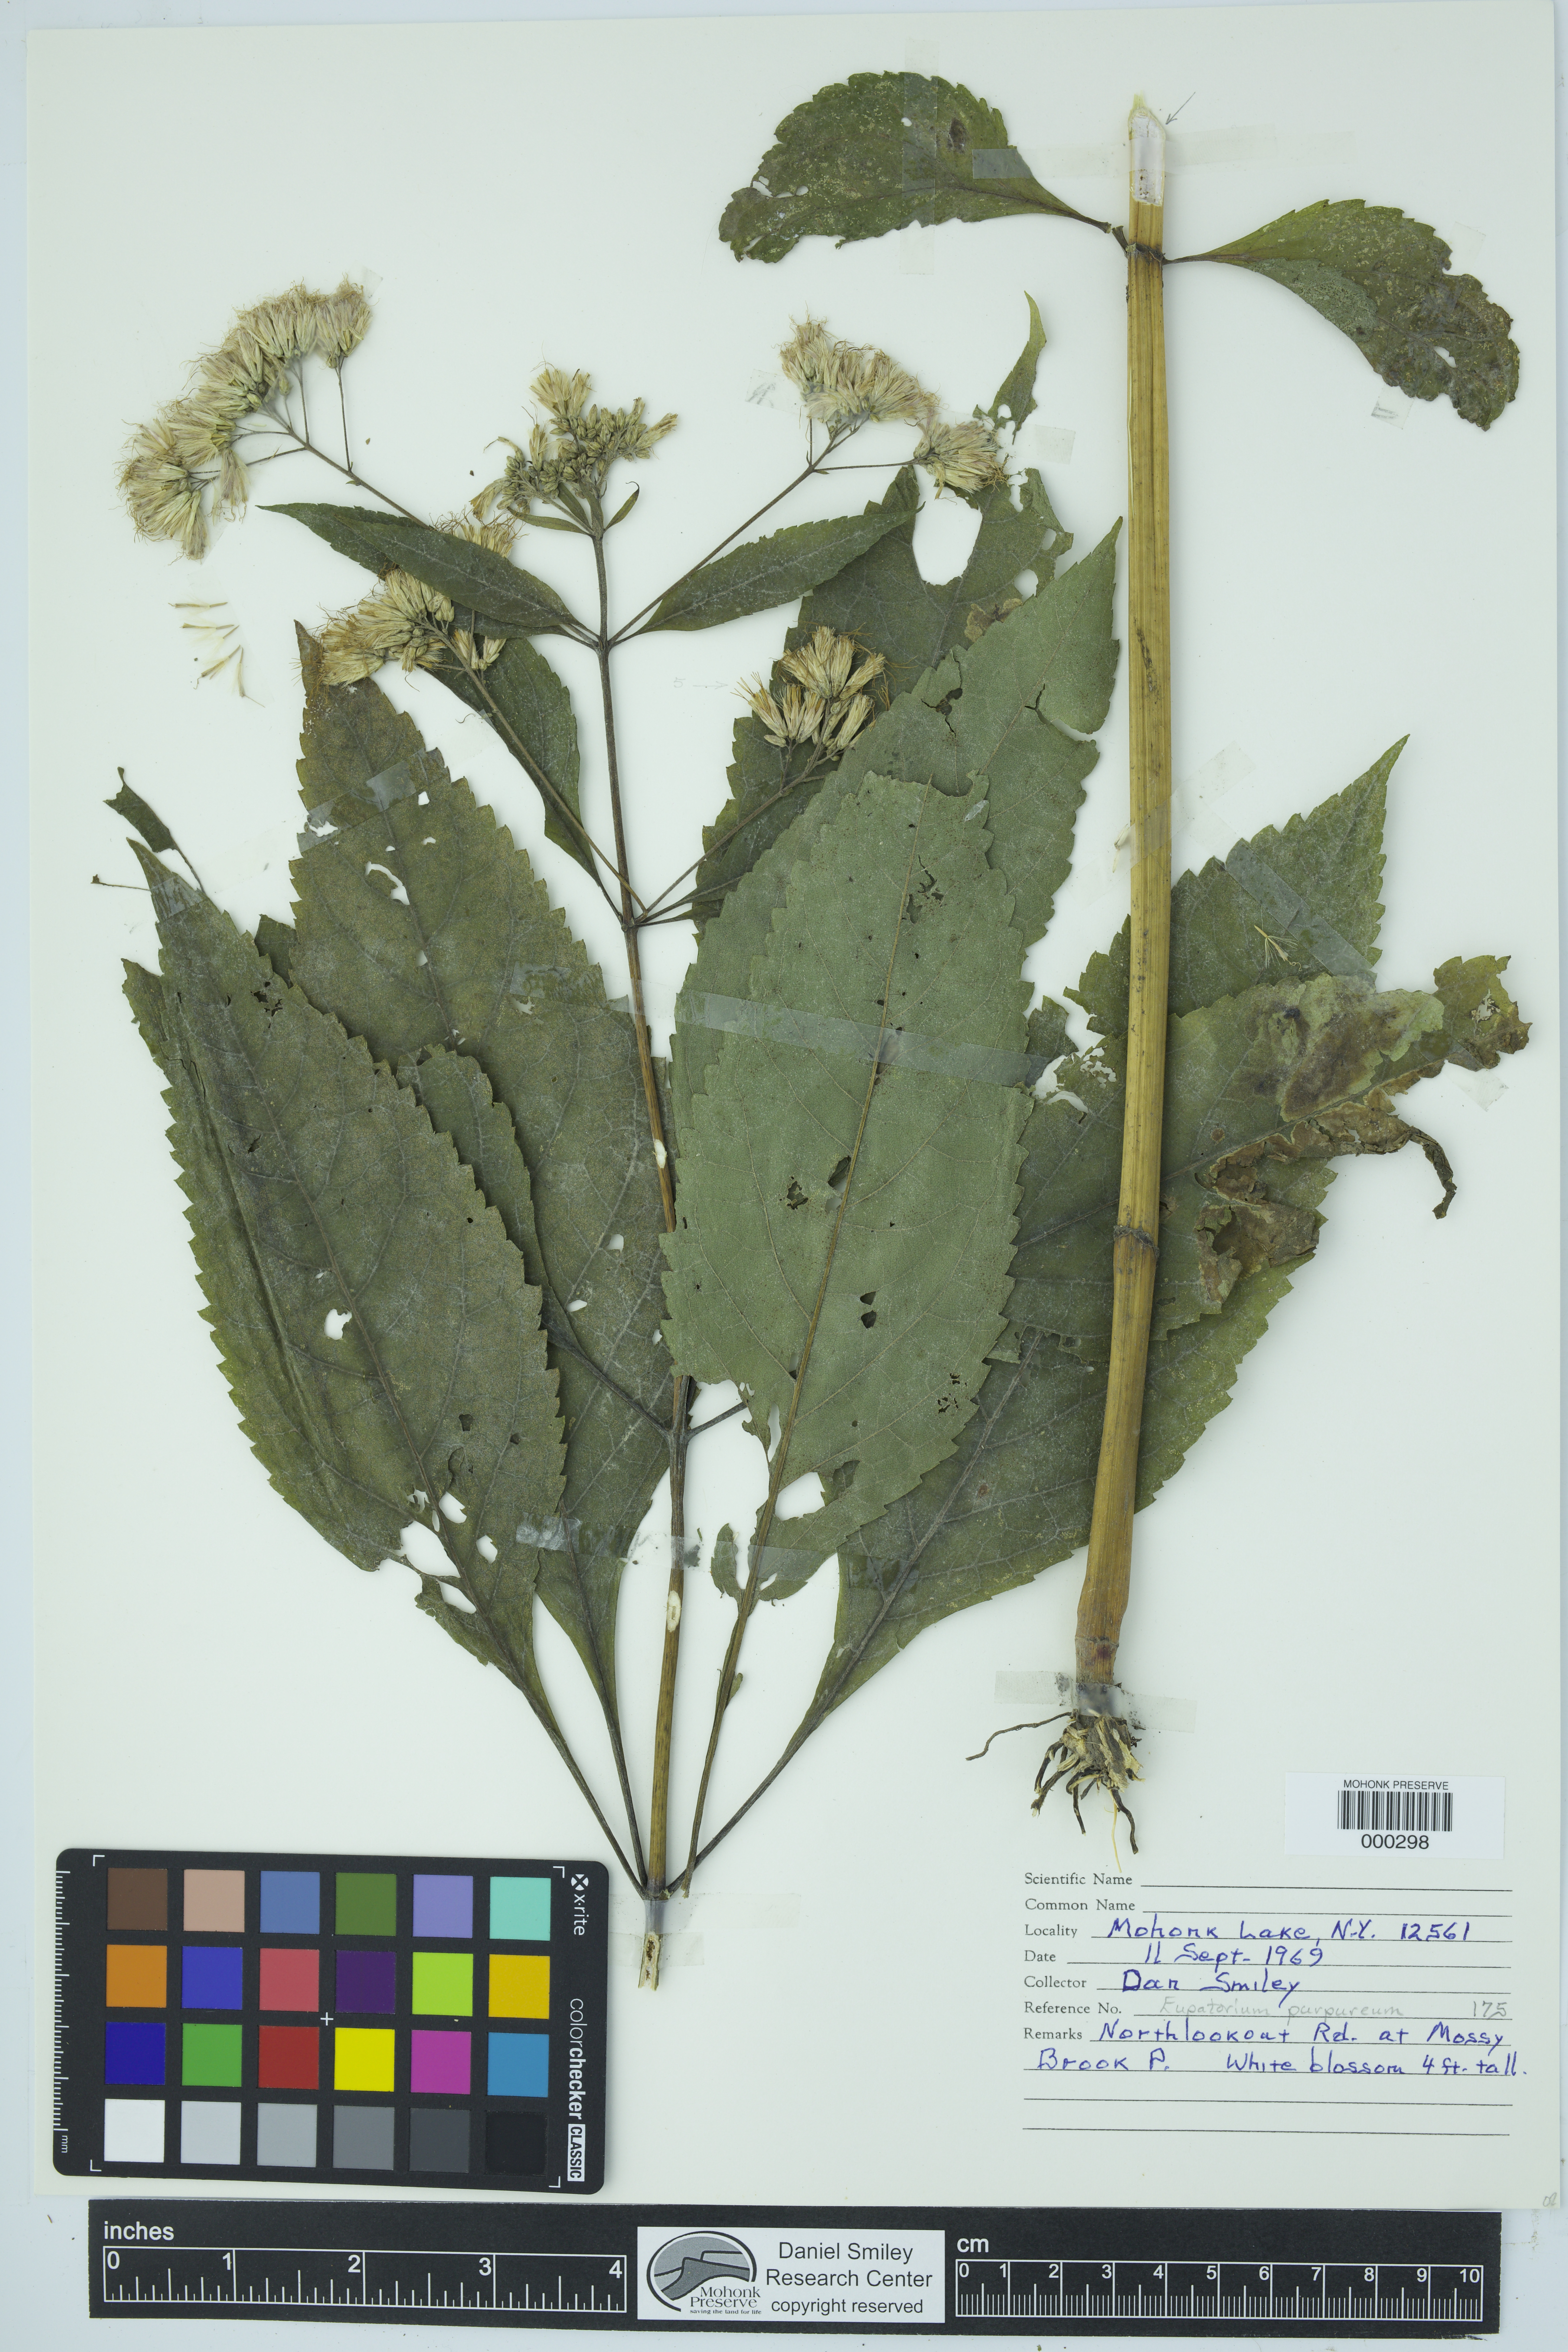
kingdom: Plantae
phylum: Tracheophyta
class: Magnoliopsida
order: Asterales
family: Asteraceae
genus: Eutrochium
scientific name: Eutrochium purpureum
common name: Gravelroot
